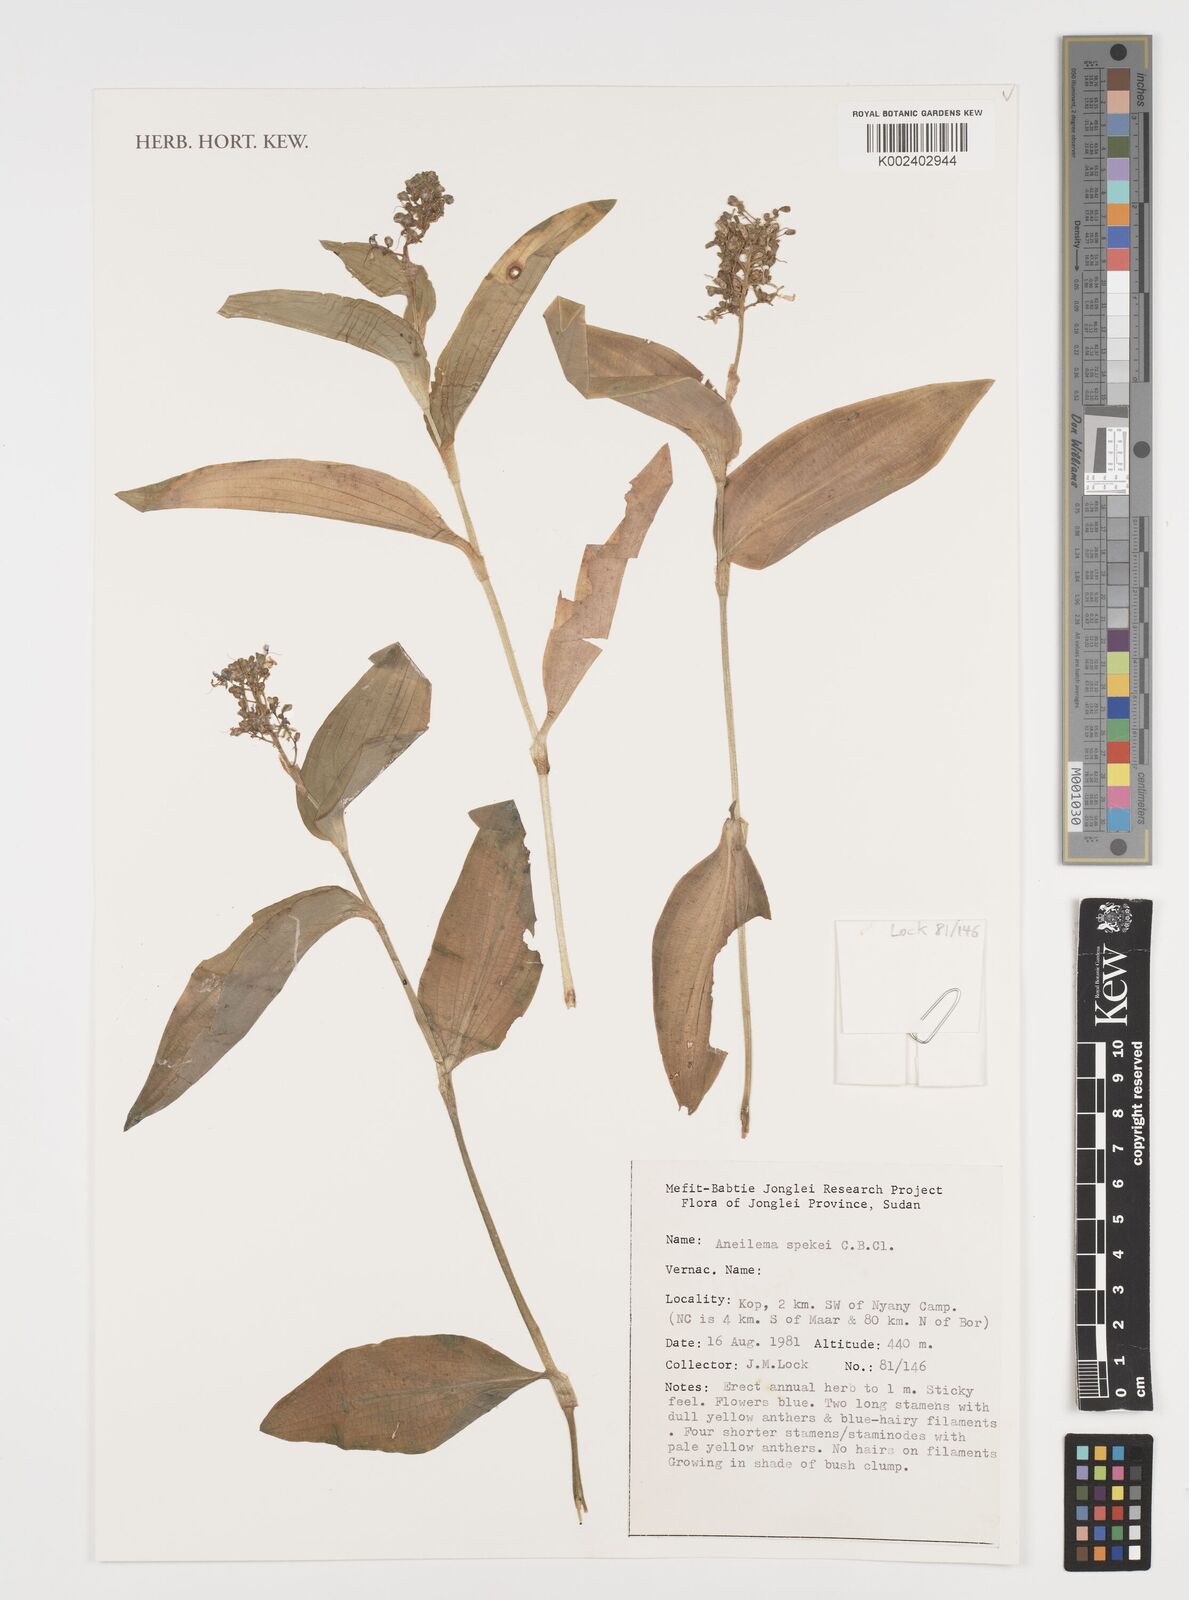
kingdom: Plantae
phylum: Tracheophyta
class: Liliopsida
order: Commelinales
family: Commelinaceae
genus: Aneilema
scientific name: Aneilema spekei
